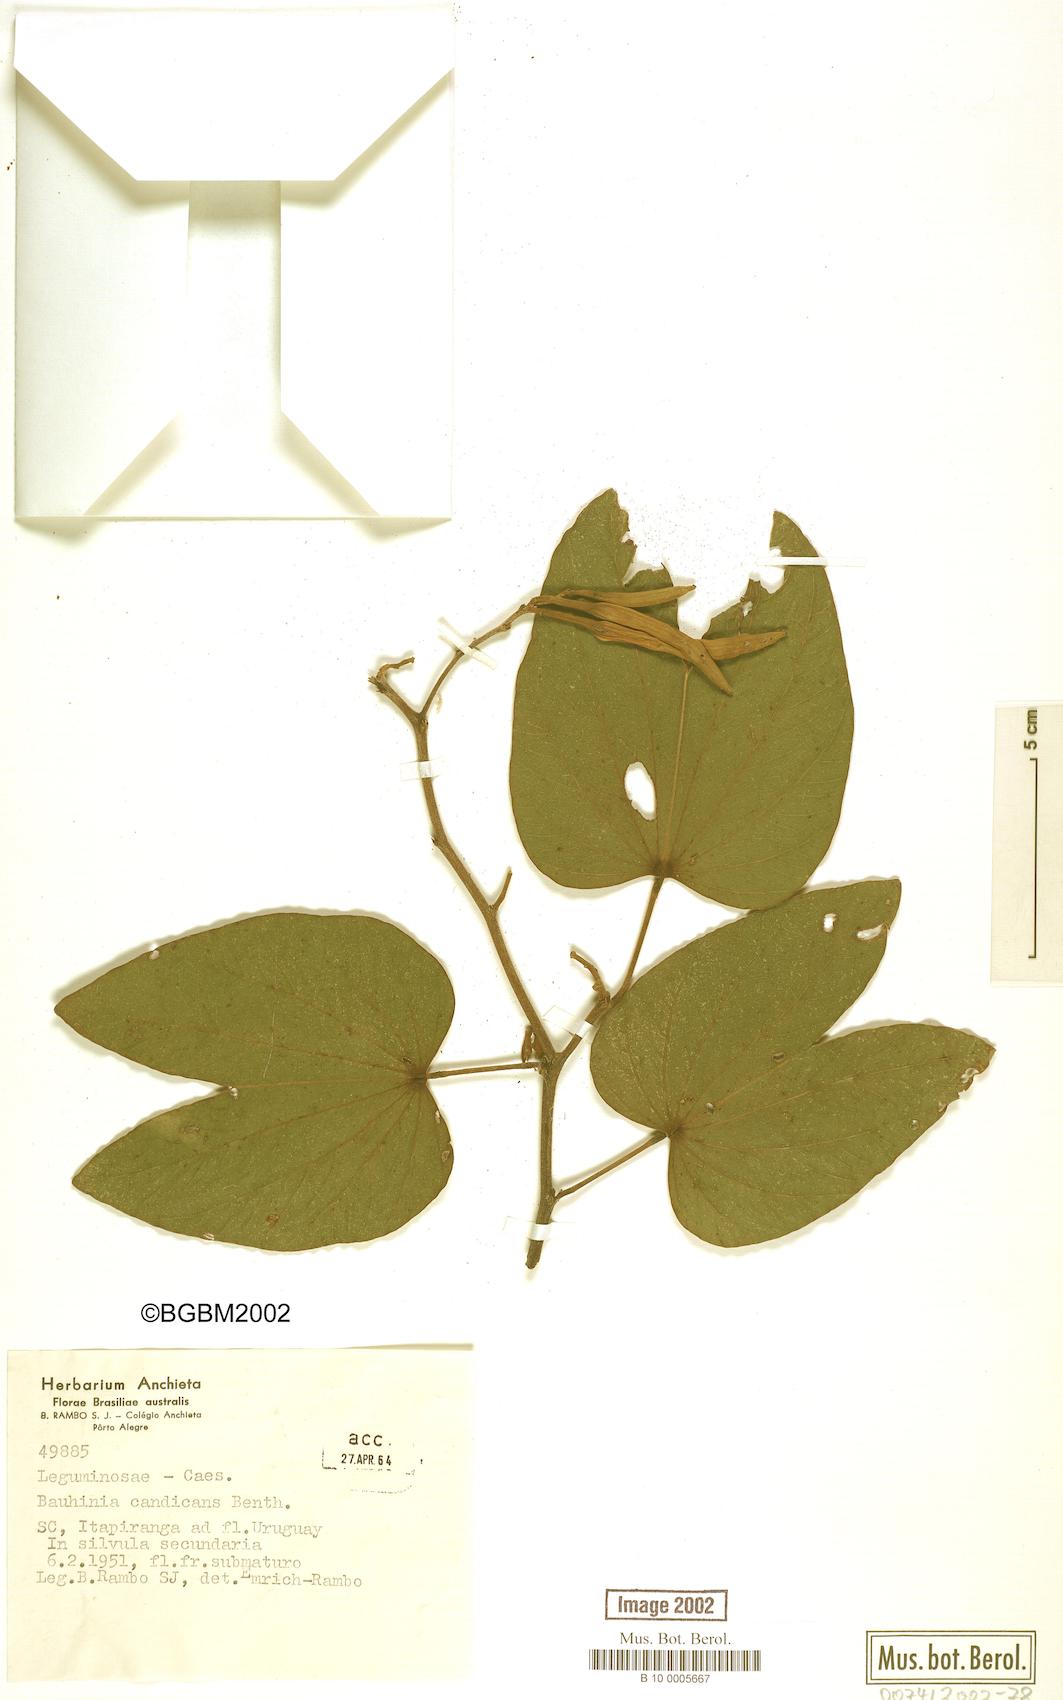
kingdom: Plantae
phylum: Tracheophyta
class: Magnoliopsida
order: Fabales
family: Fabaceae
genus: Bauhinia
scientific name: Bauhinia forficata
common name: Orchid tree
